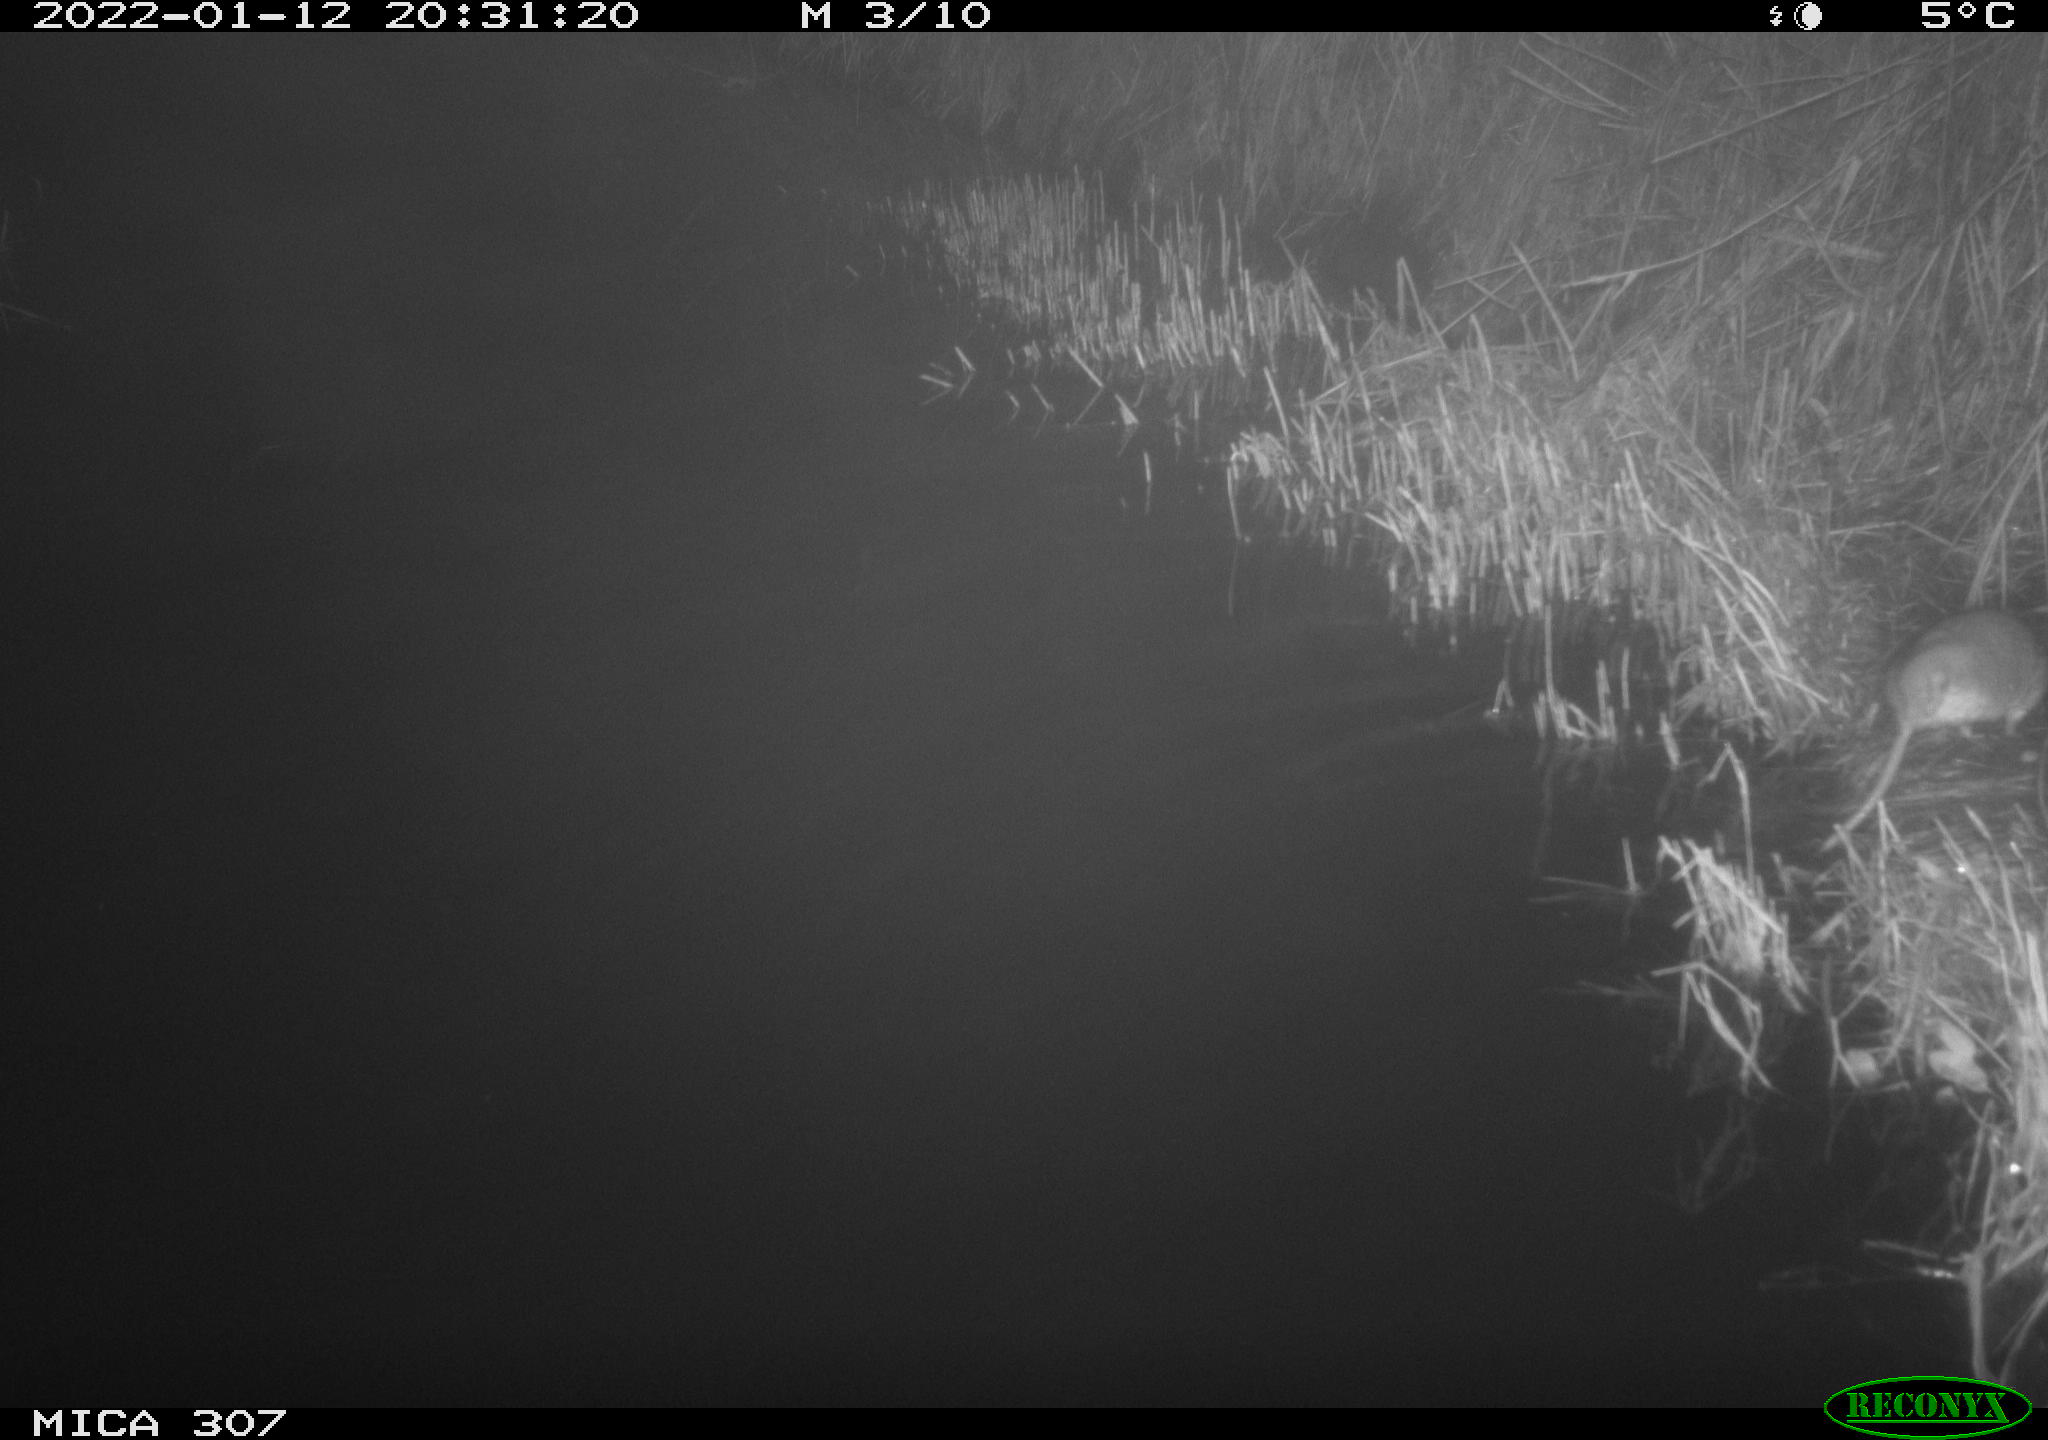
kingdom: Animalia
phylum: Chordata
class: Mammalia
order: Rodentia
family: Muridae
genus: Rattus
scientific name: Rattus norvegicus
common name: Brown rat
